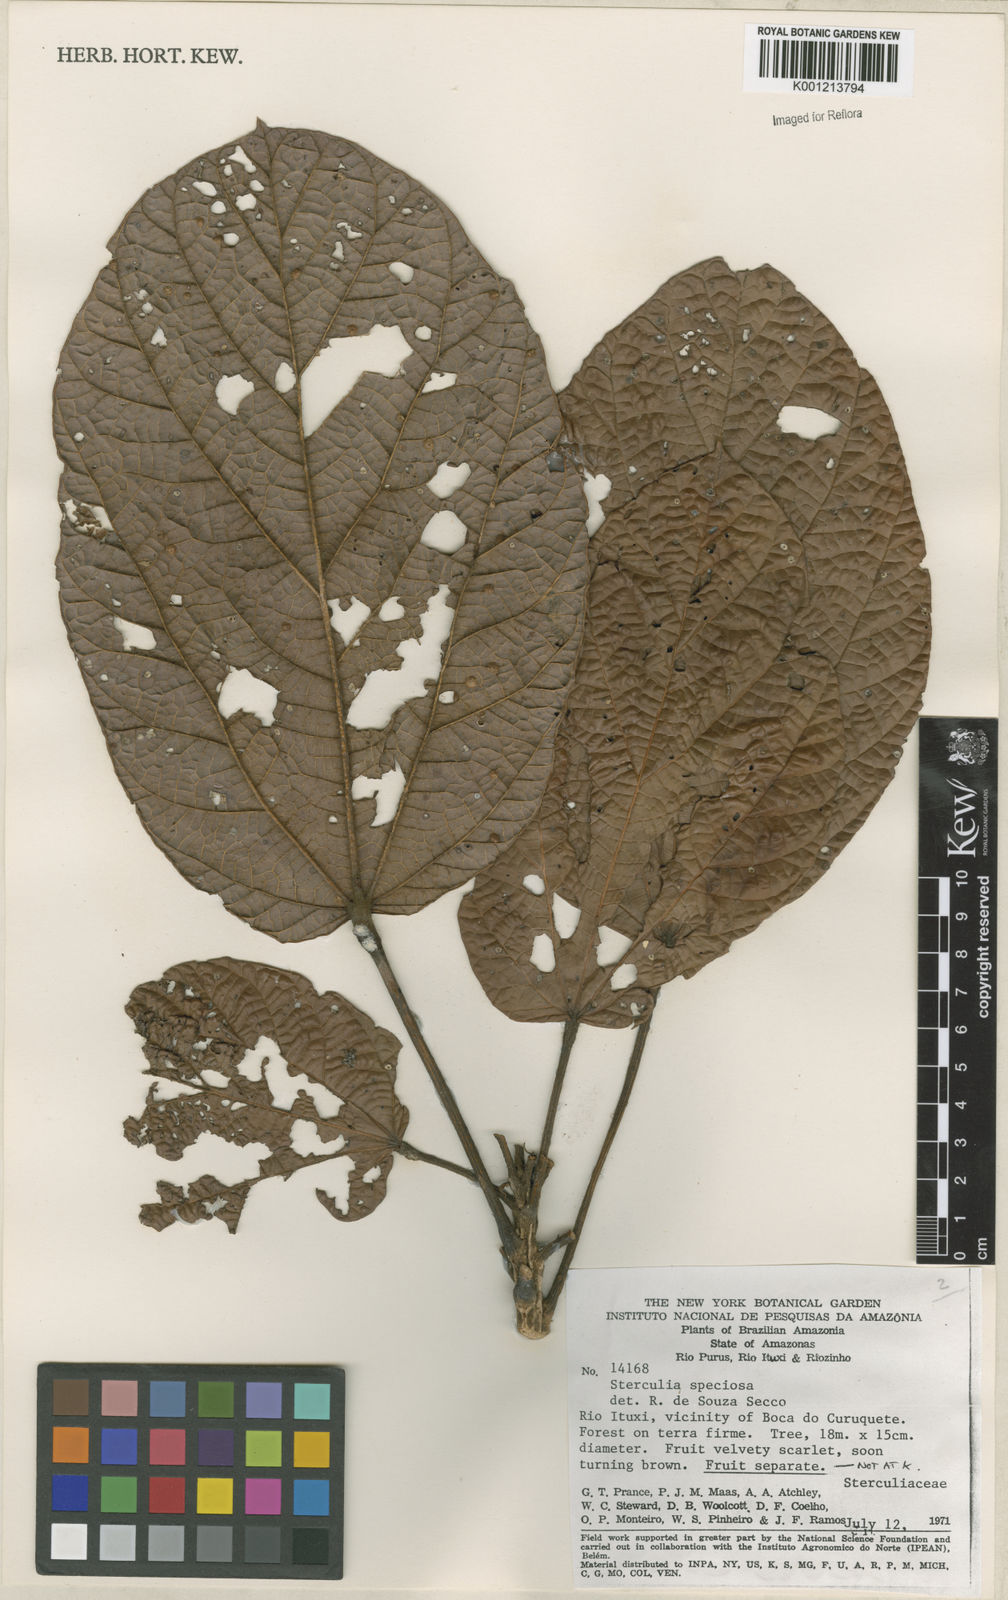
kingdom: Plantae
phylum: Tracheophyta
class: Magnoliopsida
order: Malvales
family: Malvaceae
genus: Sterculia
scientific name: Sterculia speciosa
